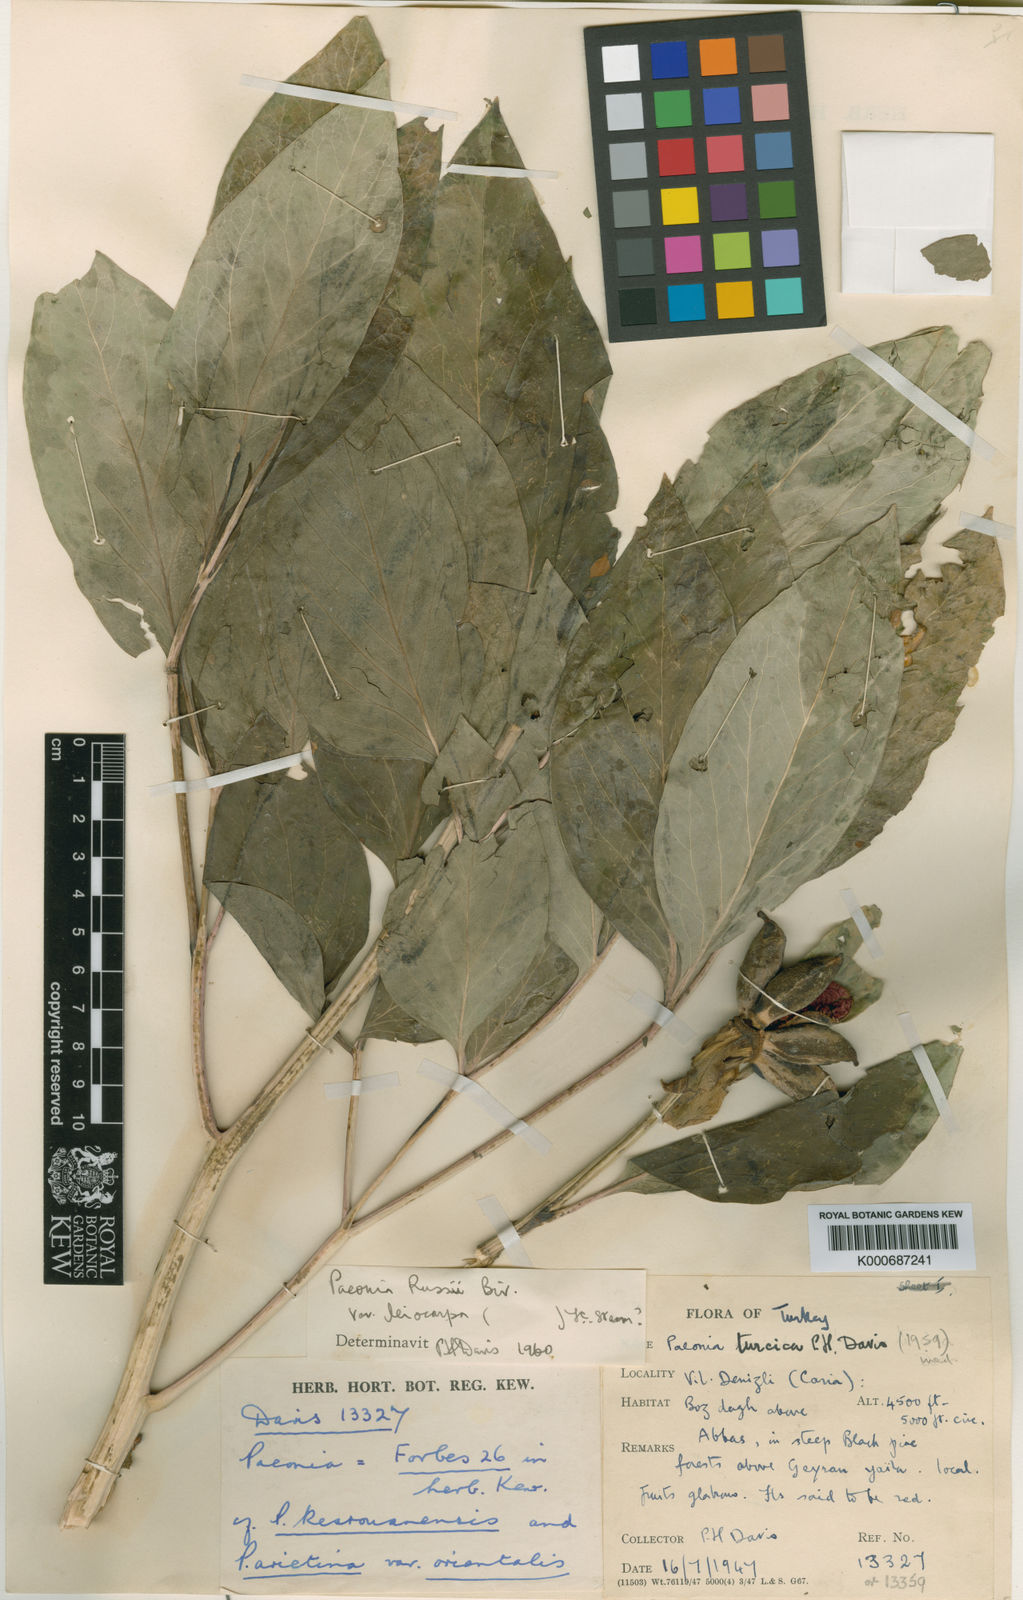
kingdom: Plantae
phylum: Tracheophyta
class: Magnoliopsida
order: Saxifragales
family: Paeoniaceae
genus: Paeonia
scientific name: Paeonia mascula
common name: Peony
